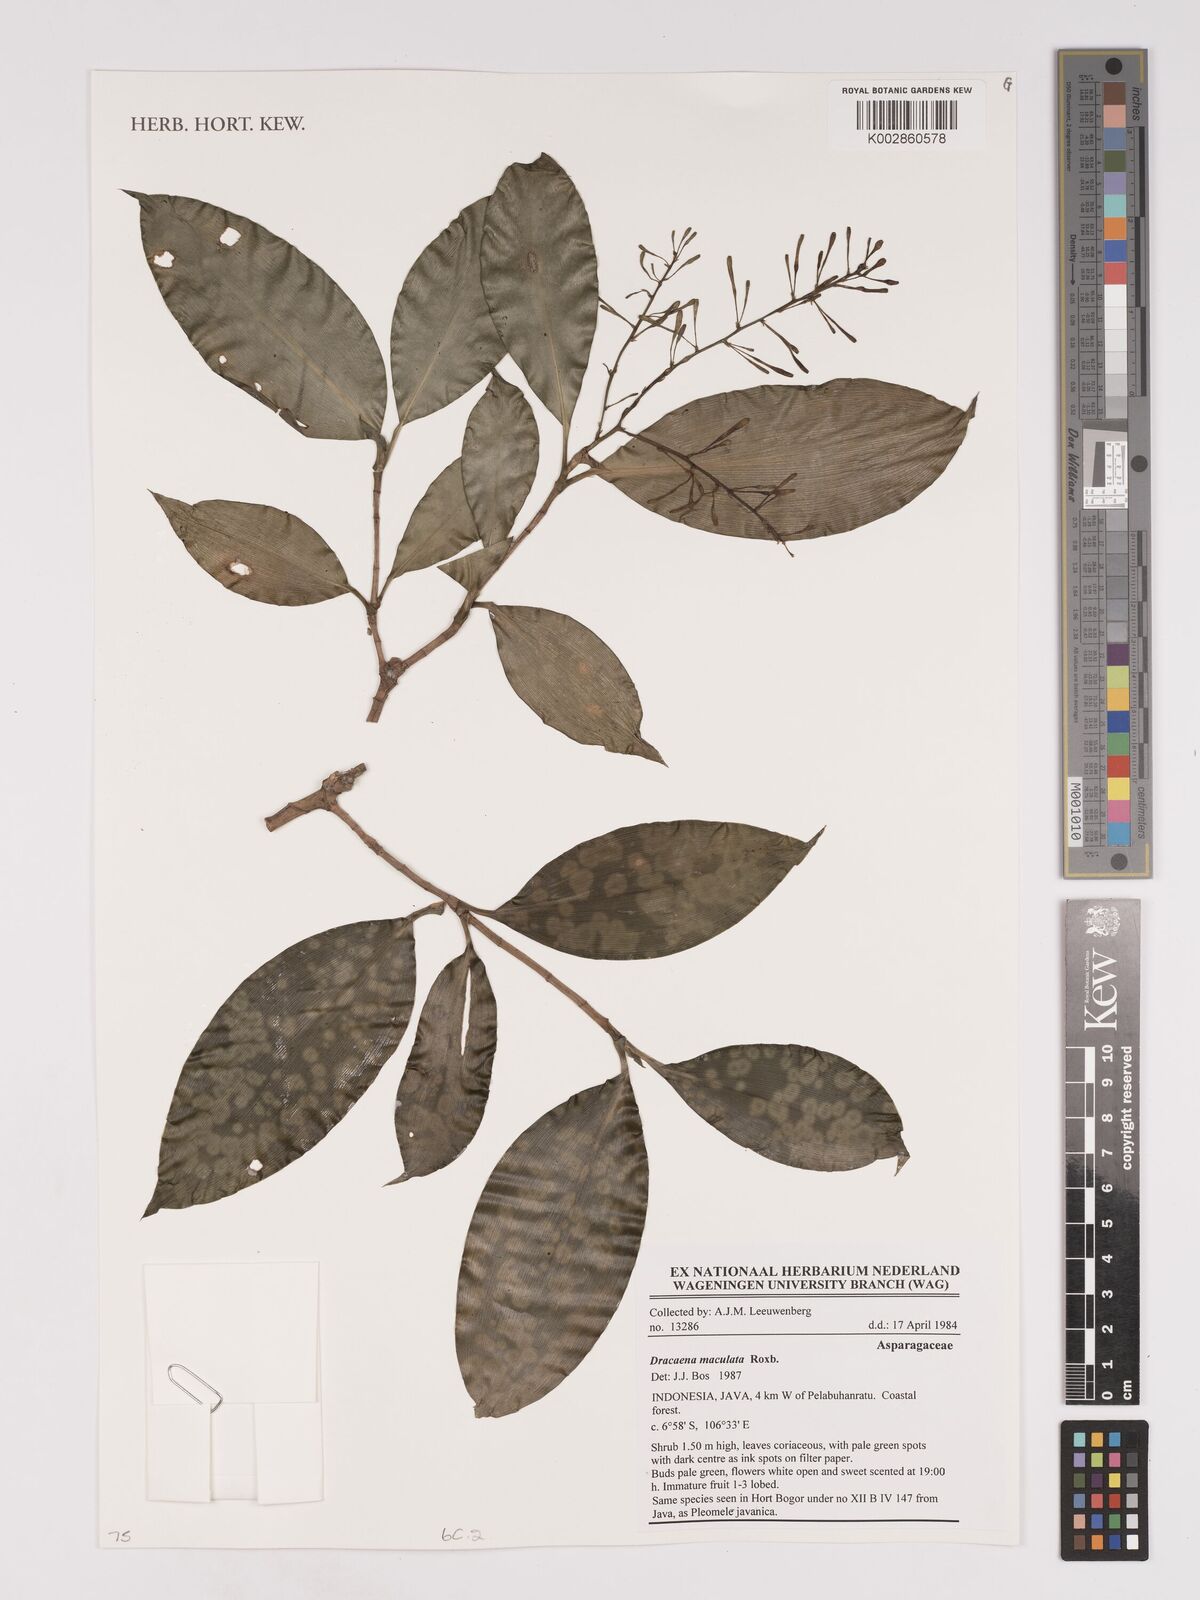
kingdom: Plantae
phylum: Tracheophyta
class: Liliopsida
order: Asparagales
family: Asparagaceae
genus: Dracaena
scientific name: Dracaena elliptica
